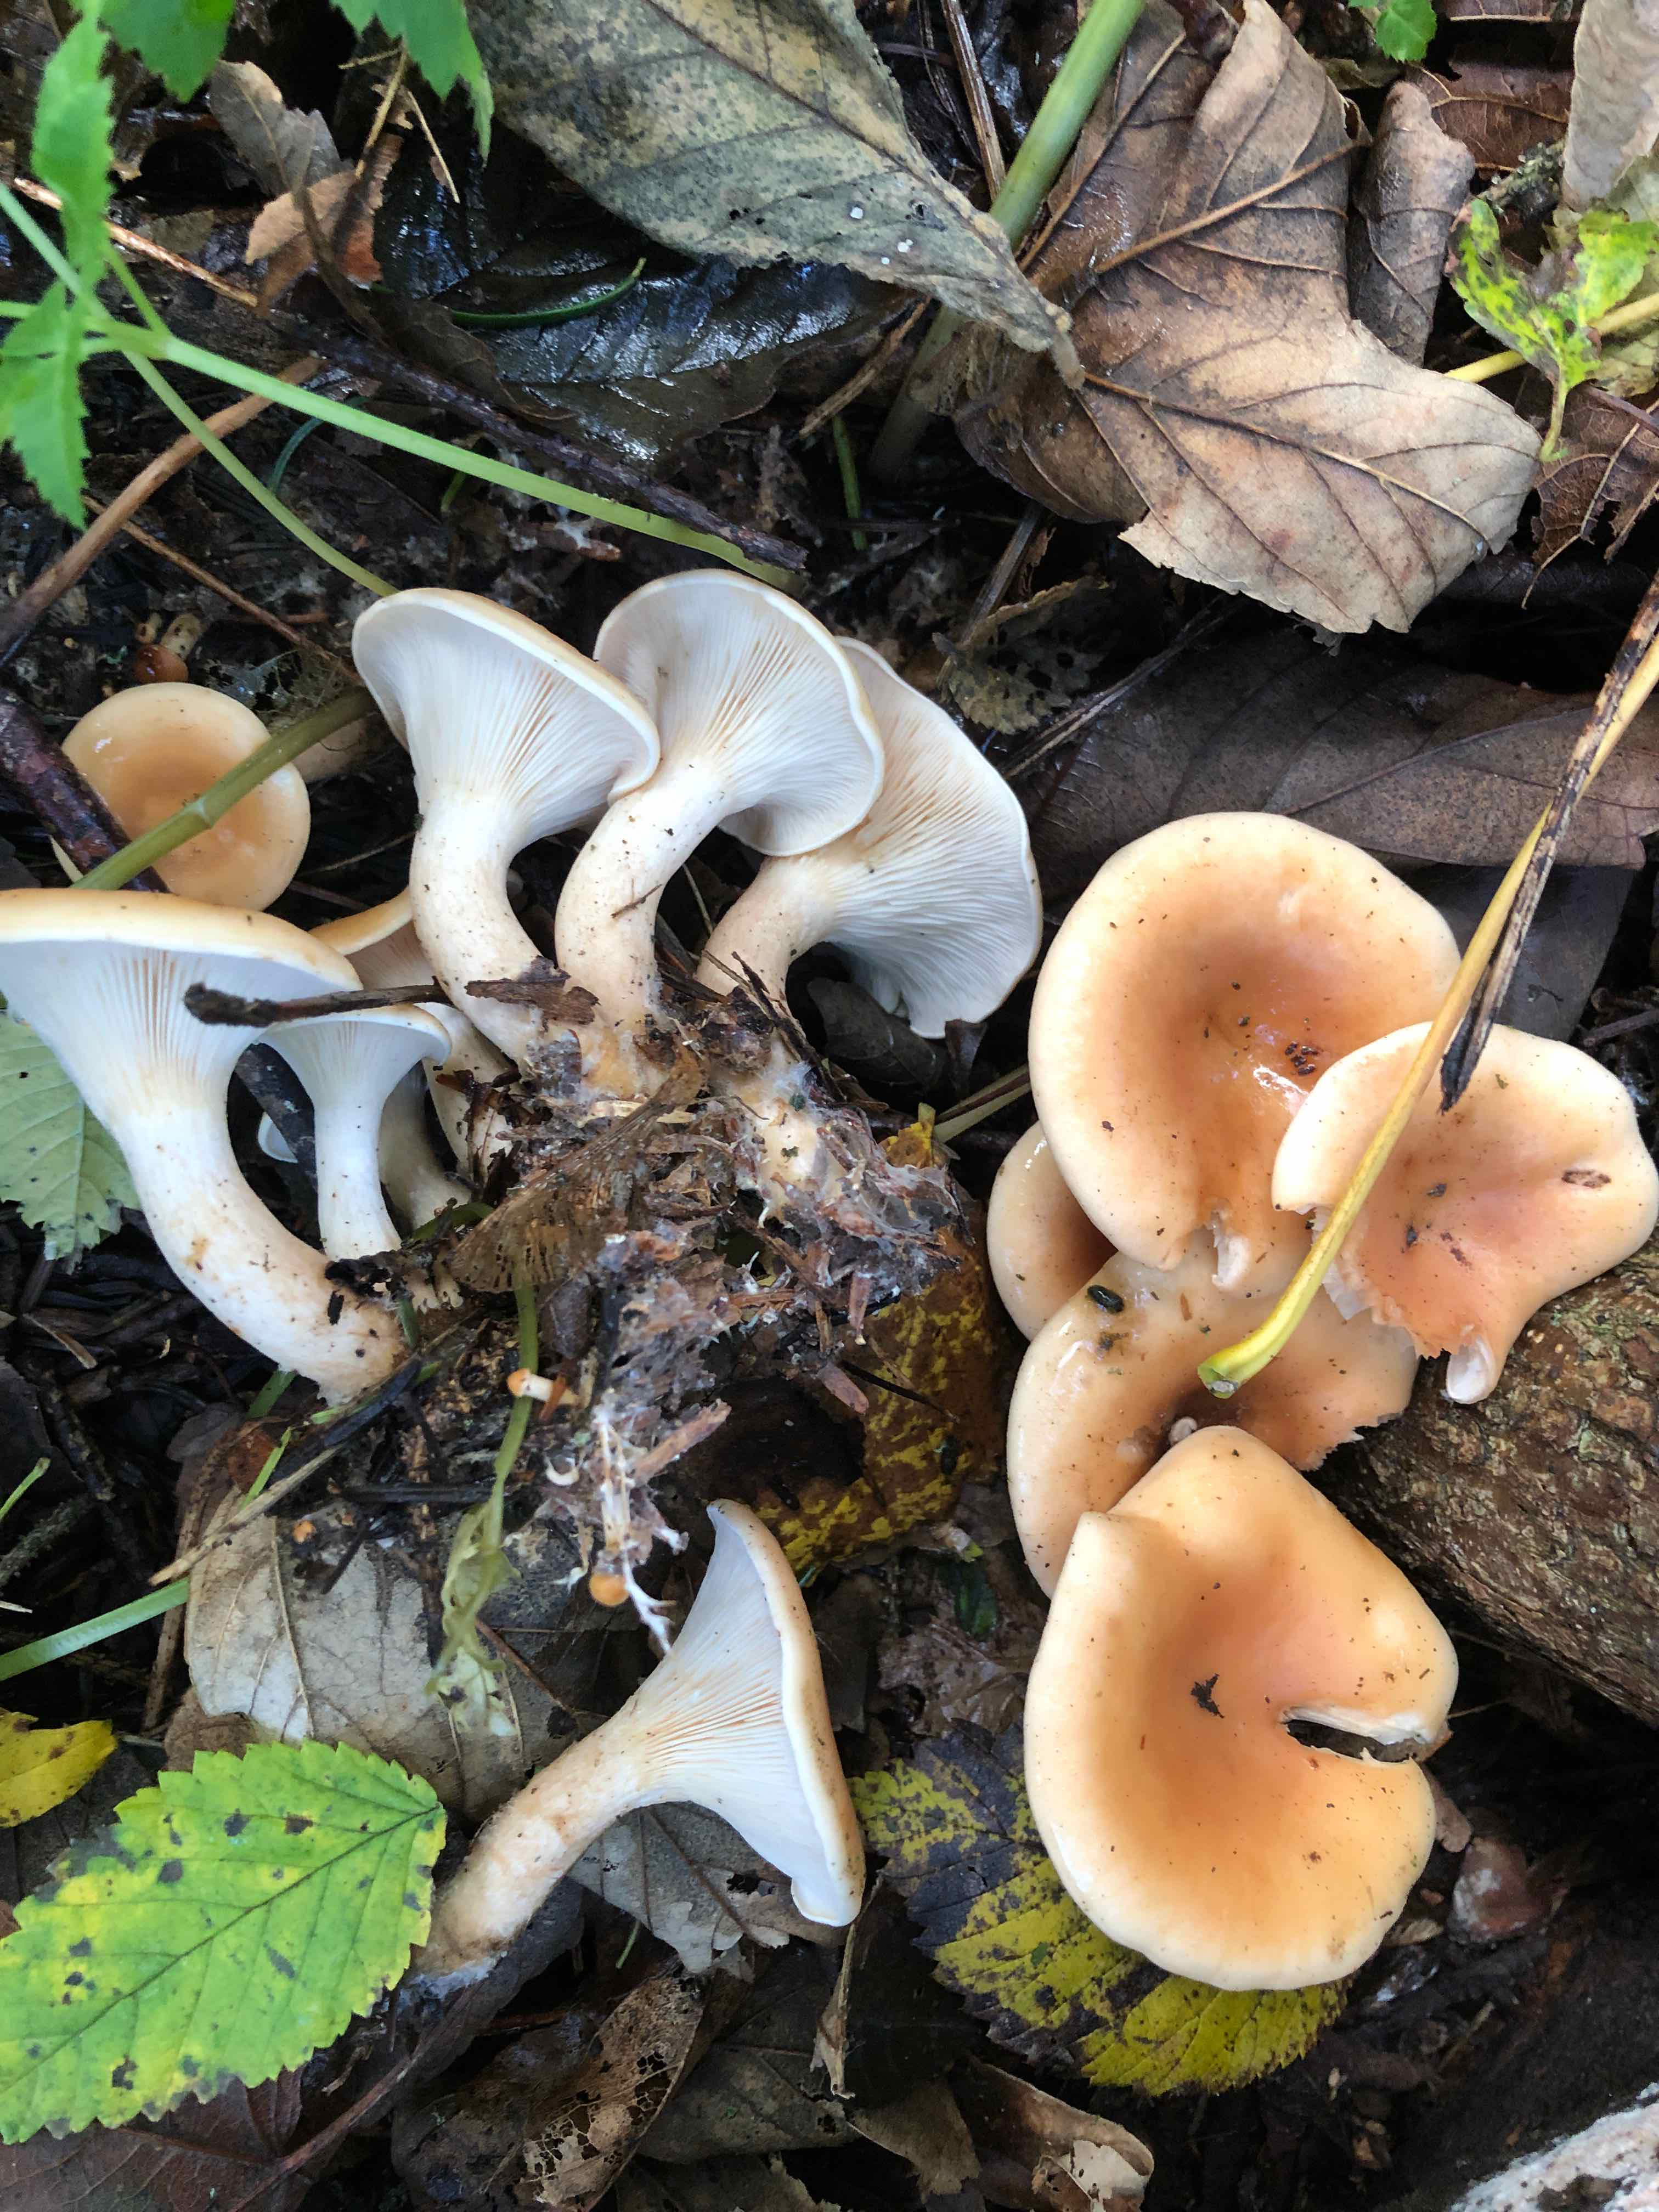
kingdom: Fungi
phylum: Basidiomycota
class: Agaricomycetes
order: Agaricales
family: Tricholomataceae
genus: Paralepista
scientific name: Paralepista flaccida
